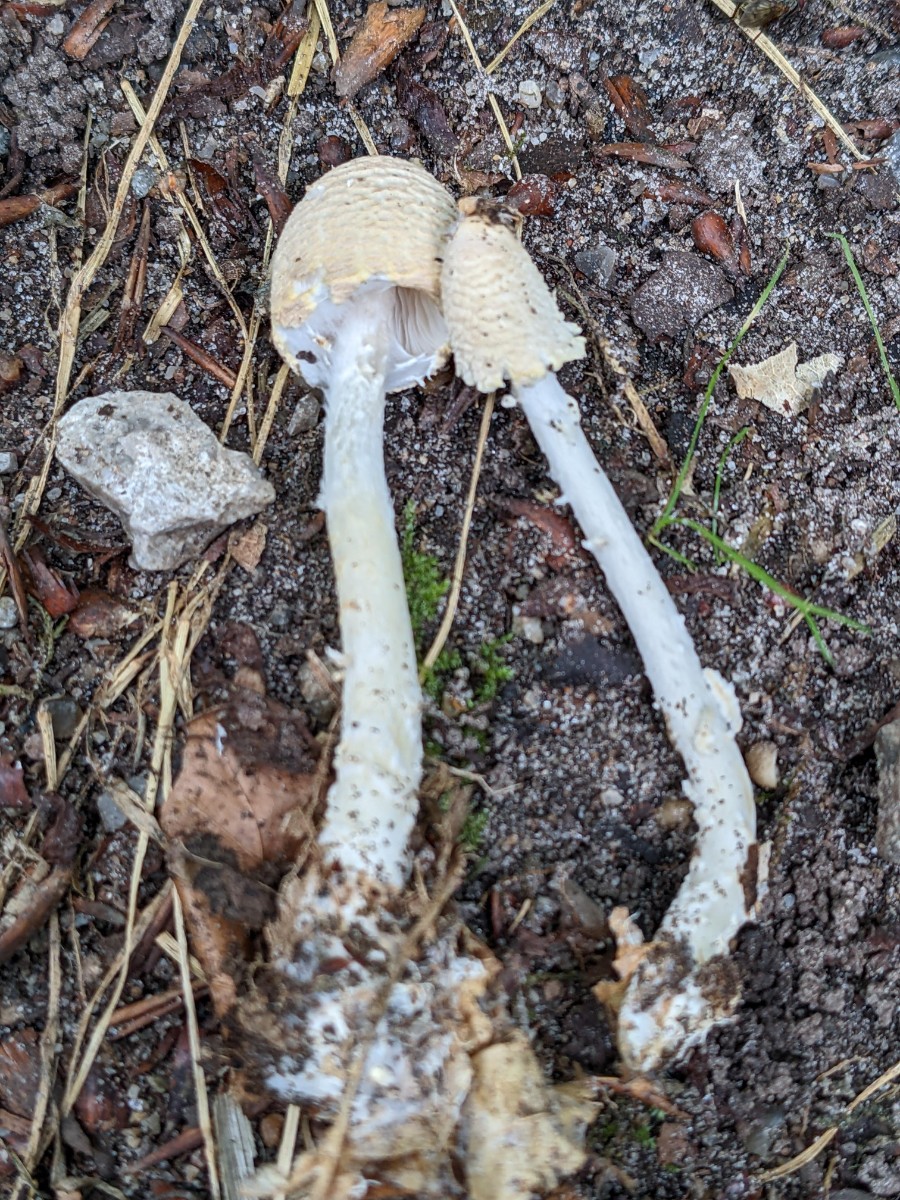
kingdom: Fungi
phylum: Basidiomycota
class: Agaricomycetes
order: Agaricales
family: Agaricaceae
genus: Lepiota
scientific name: Lepiota clypeolaria
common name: flosset parasolhat
